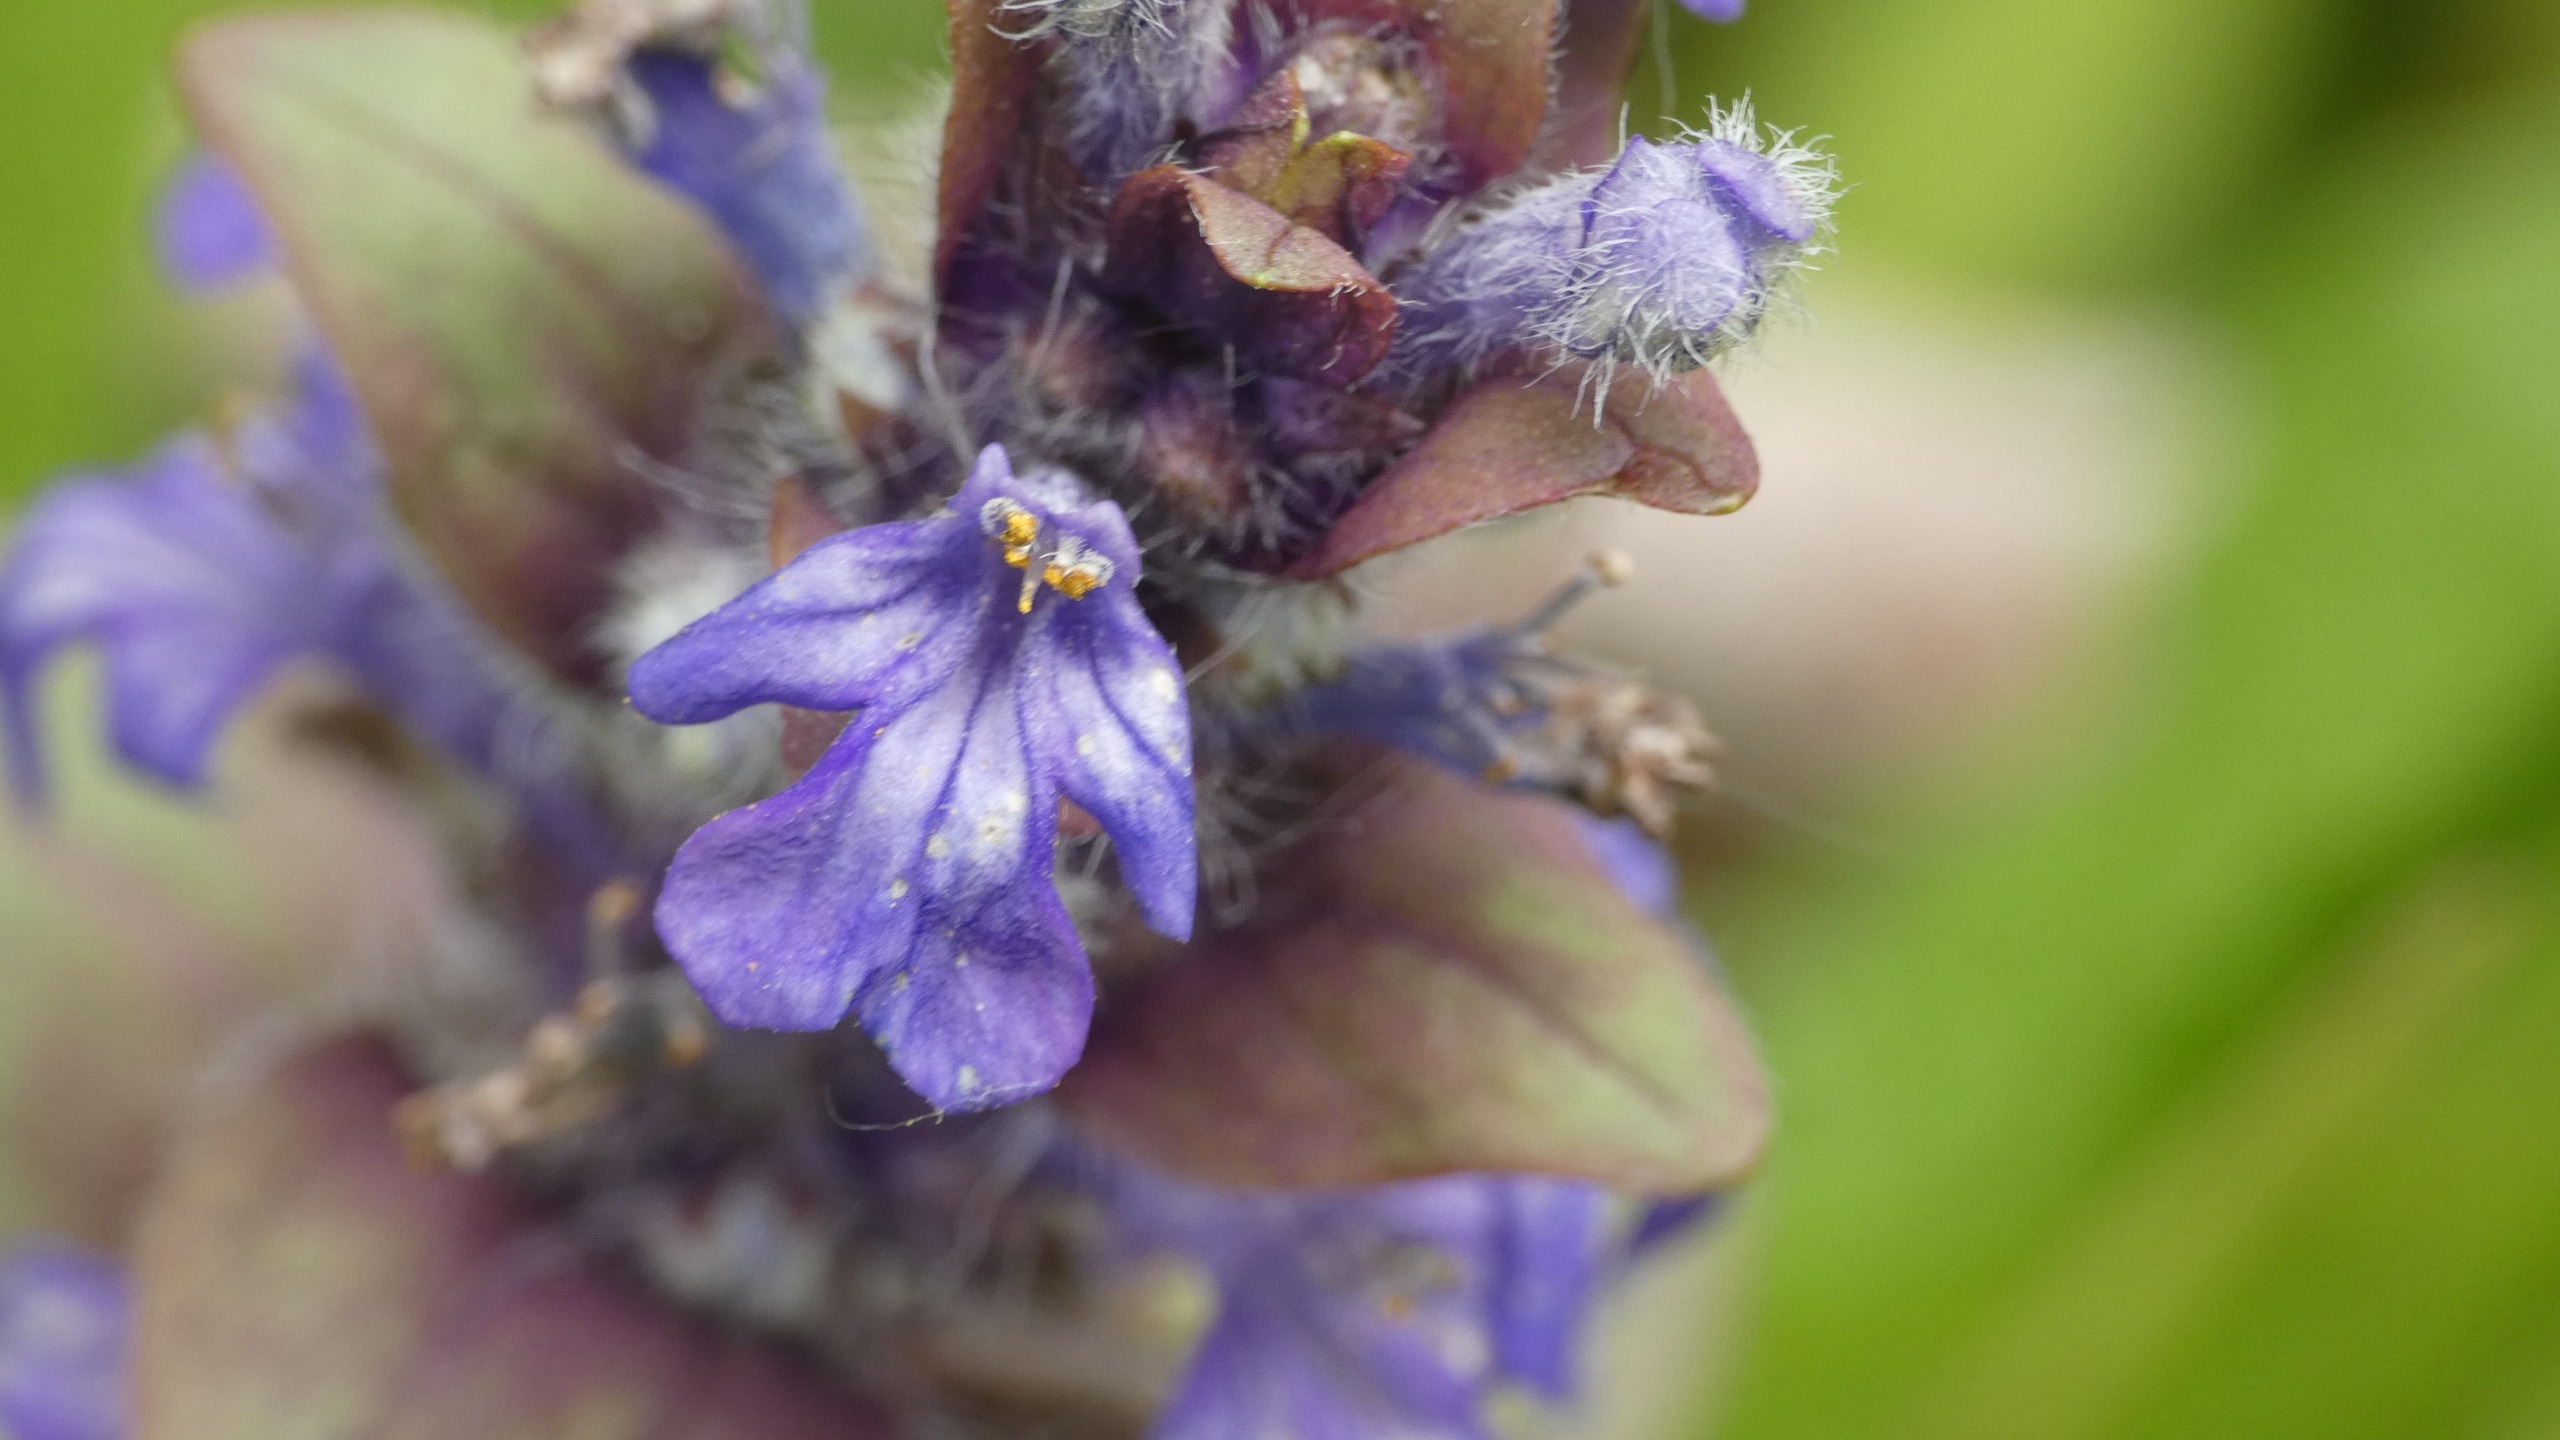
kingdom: Plantae
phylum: Tracheophyta
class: Magnoliopsida
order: Lamiales
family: Lamiaceae
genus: Ajuga
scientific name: Ajuga reptans
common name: Krybende læbeløs
